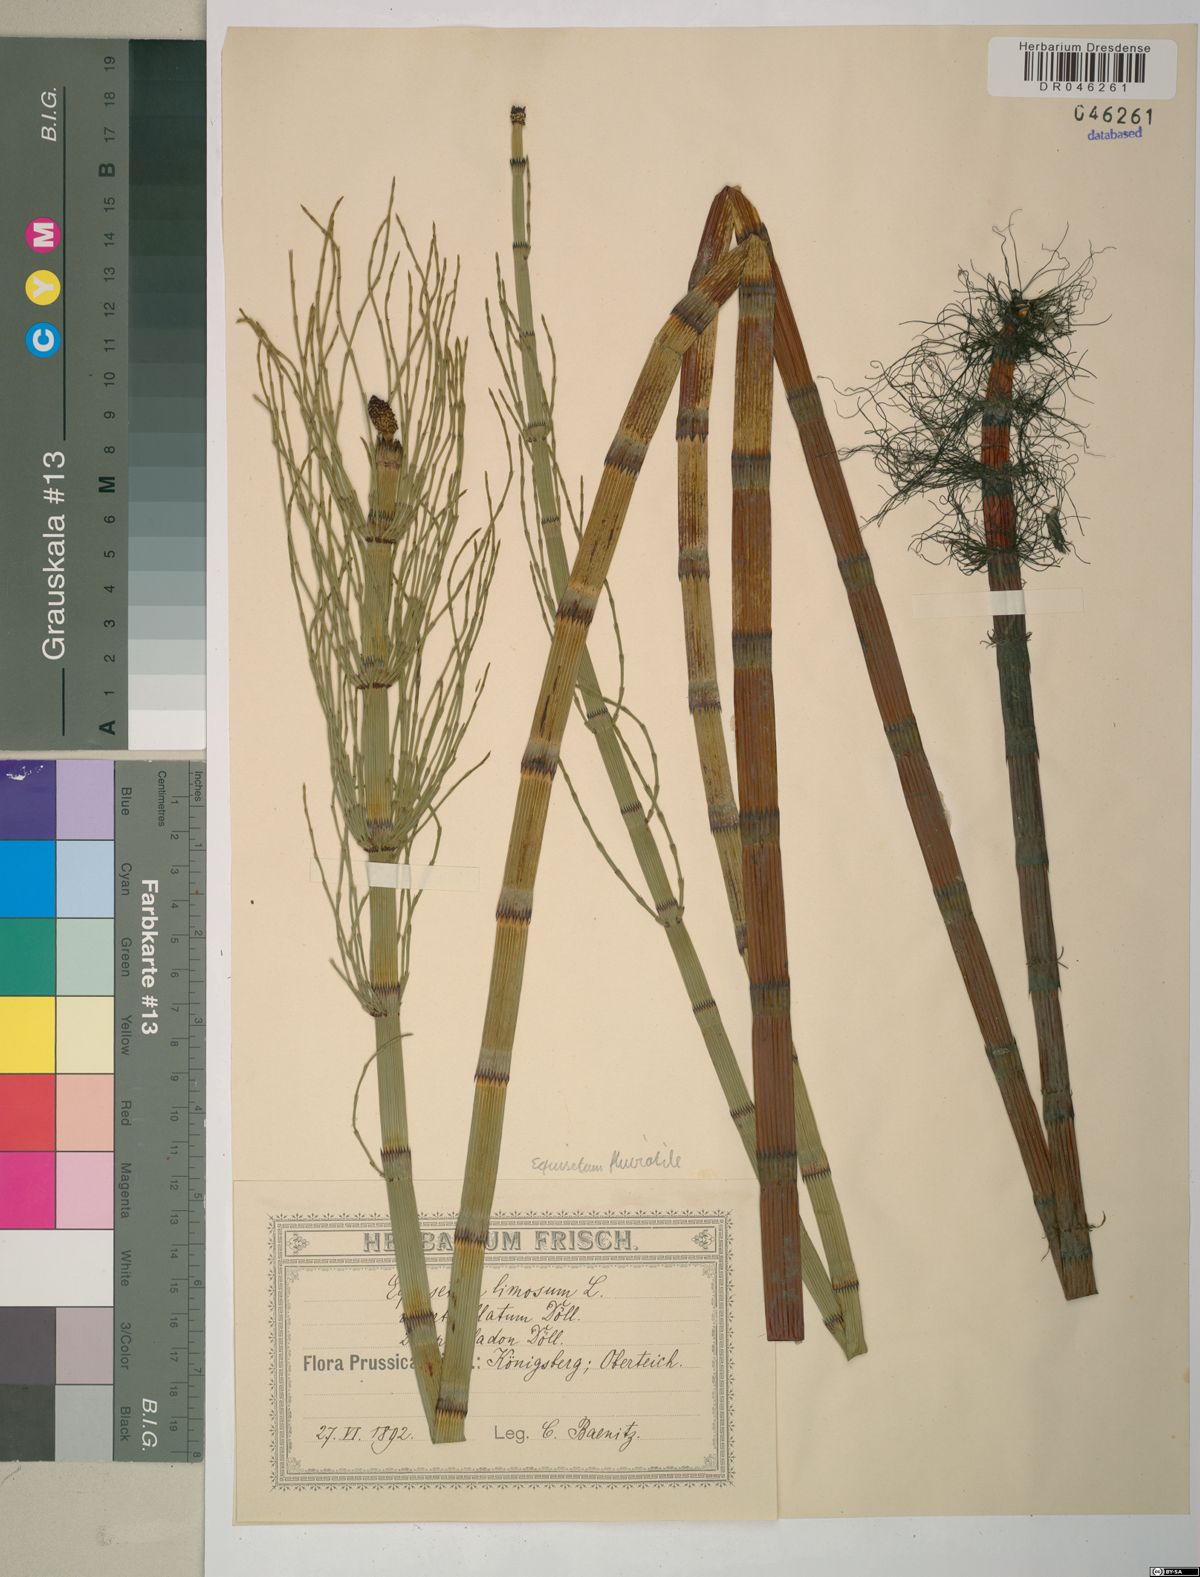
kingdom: Plantae
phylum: Tracheophyta
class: Polypodiopsida
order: Equisetales
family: Equisetaceae
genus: Equisetum
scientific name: Equisetum fluviatile
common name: Water horsetail
